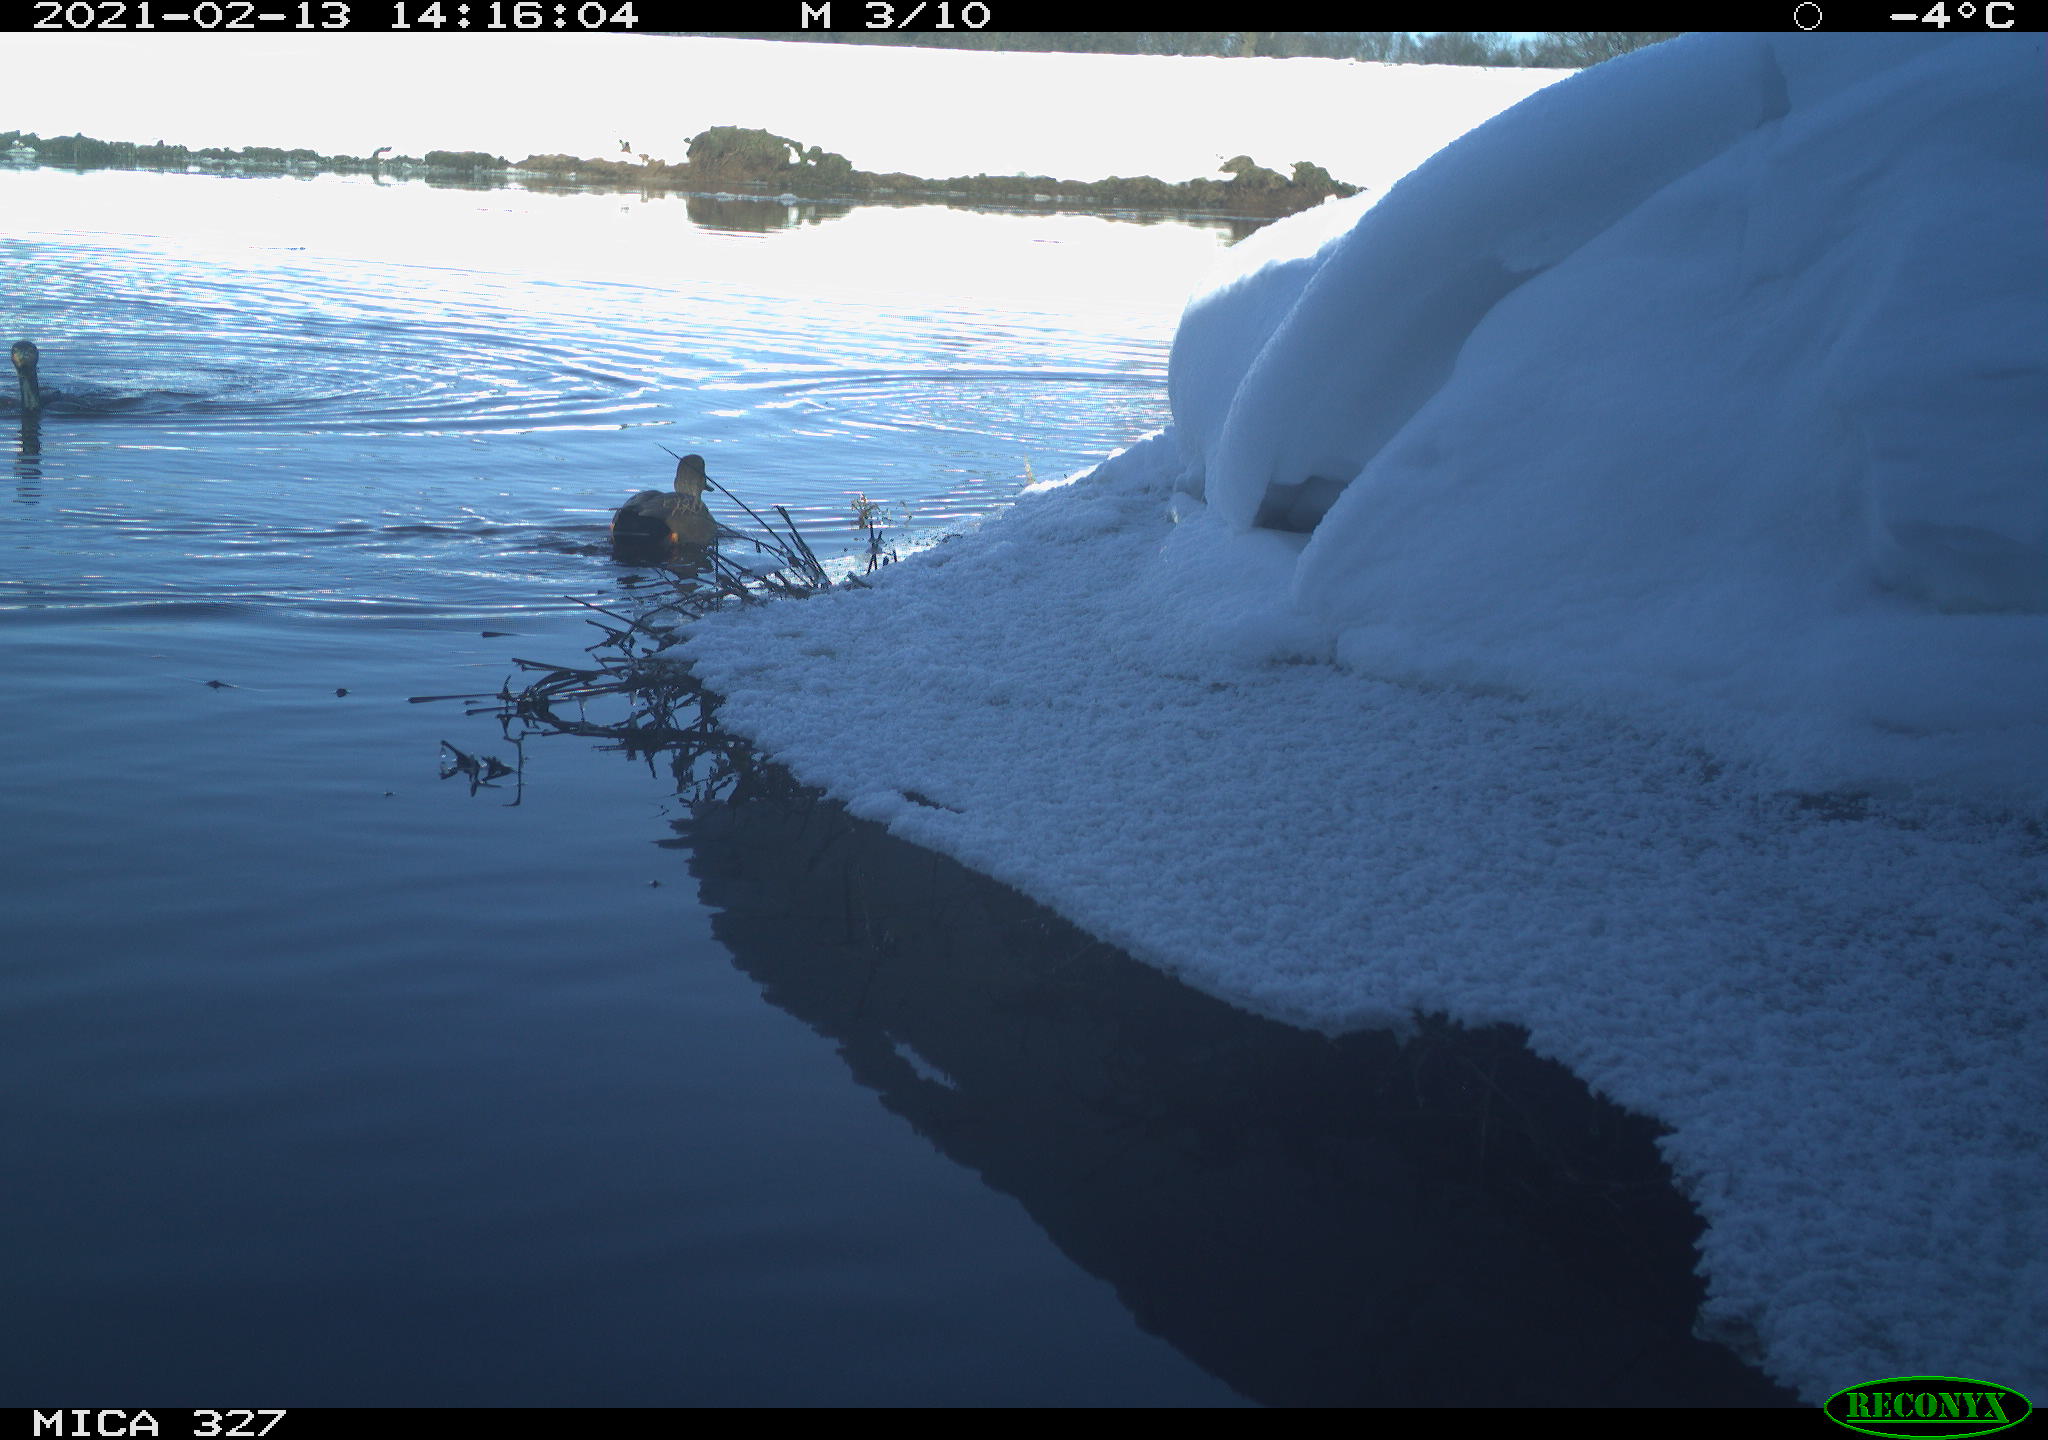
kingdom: Animalia
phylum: Chordata
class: Aves
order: Anseriformes
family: Anatidae
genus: Anas
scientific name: Anas
